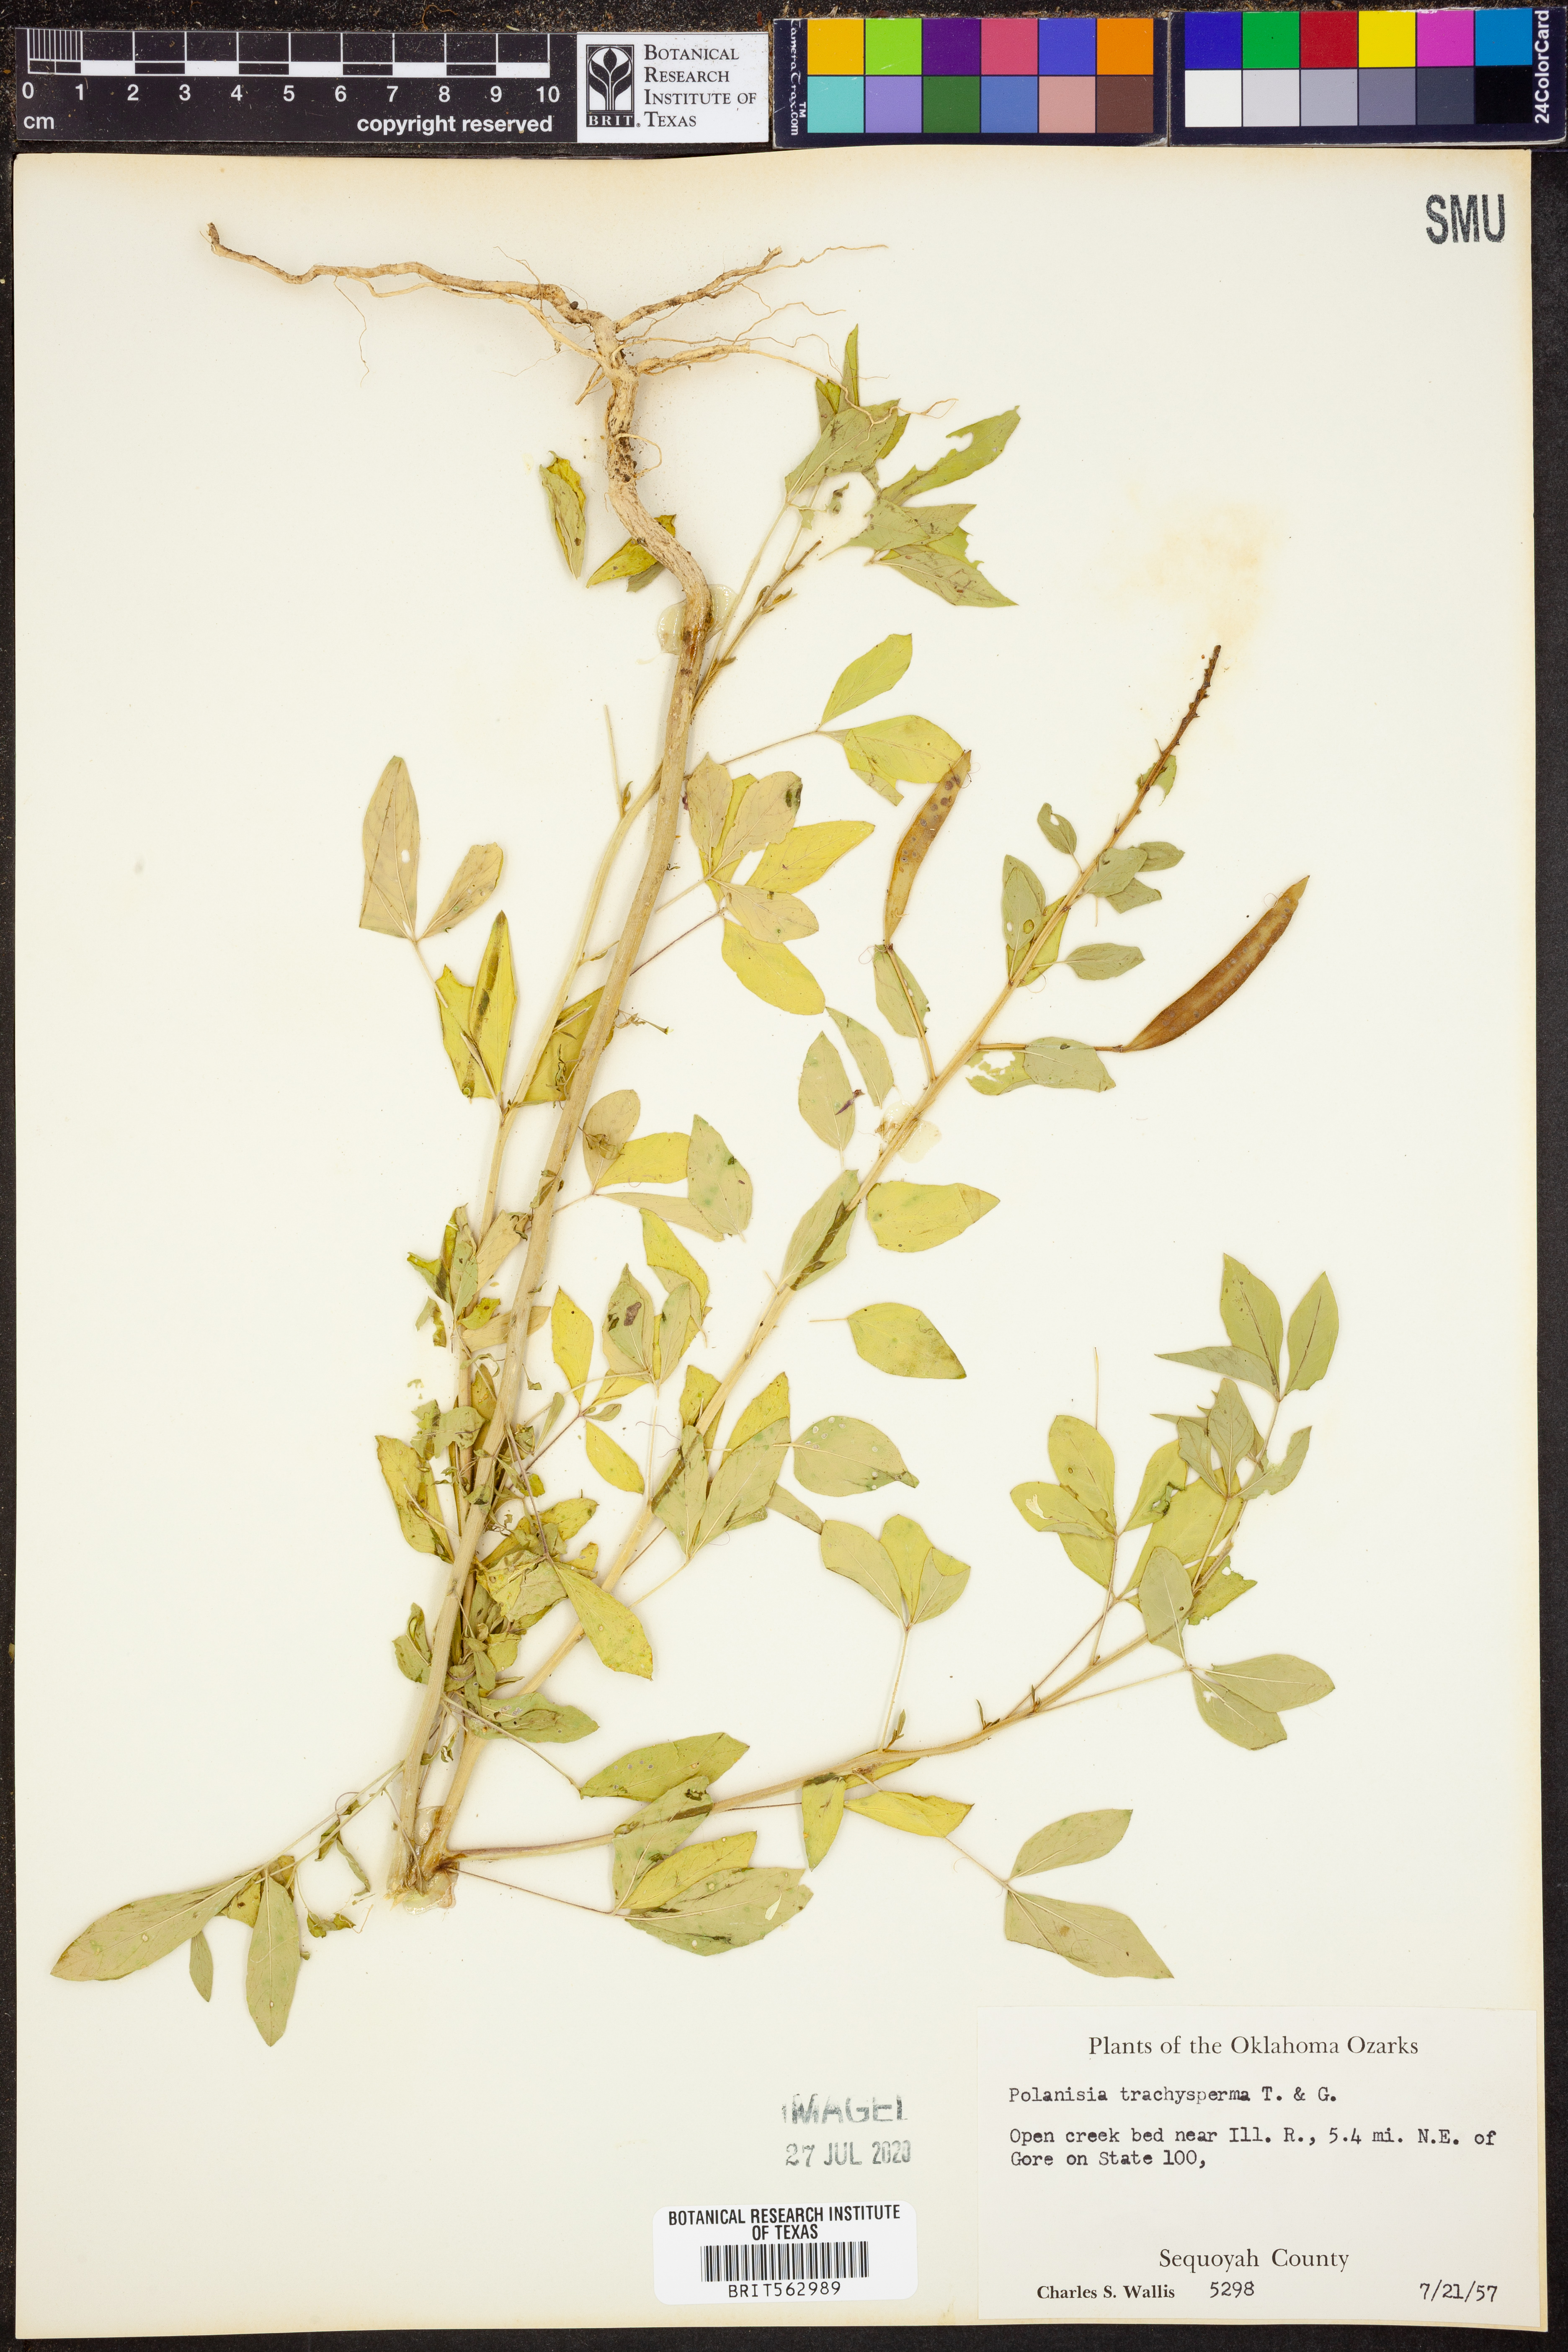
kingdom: Plantae
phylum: Tracheophyta
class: Magnoliopsida
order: Brassicales
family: Cleomaceae
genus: Polanisia
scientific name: Polanisia trachysperma
